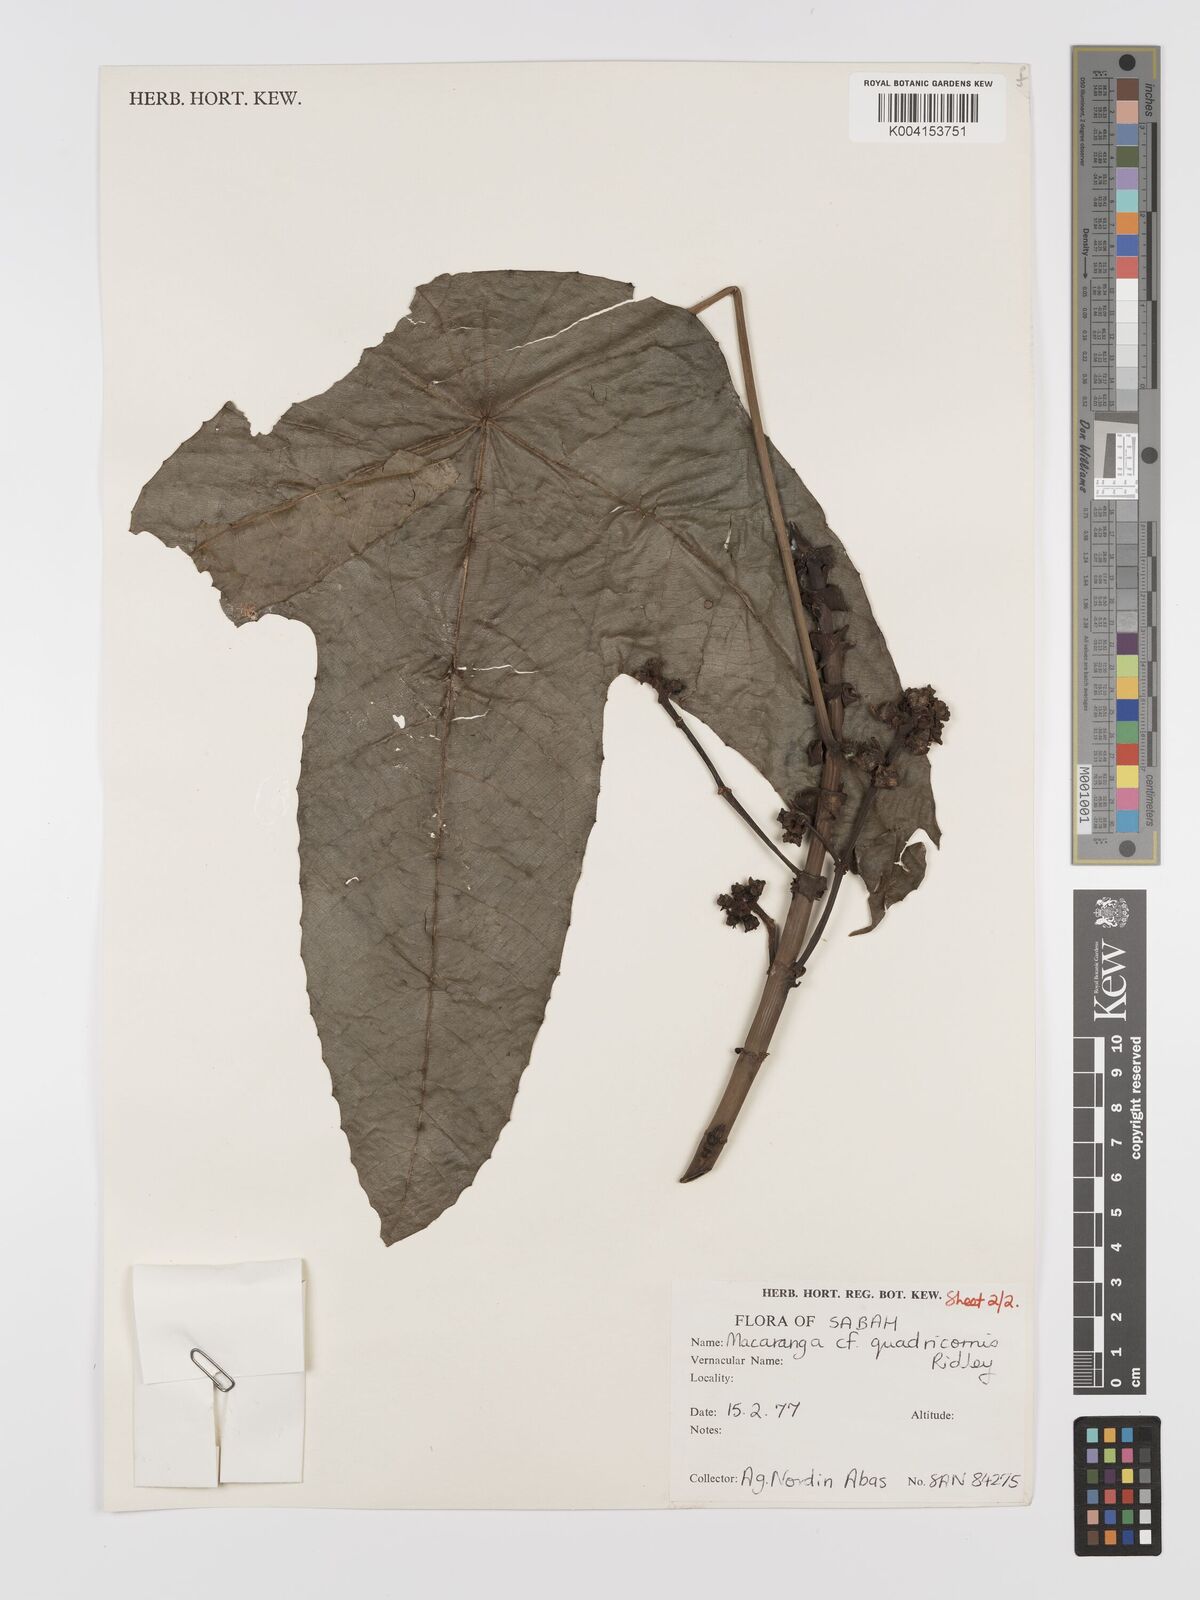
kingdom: Plantae
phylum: Tracheophyta
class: Magnoliopsida
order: Malpighiales
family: Euphorbiaceae
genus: Macaranga
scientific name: Macaranga depressa
